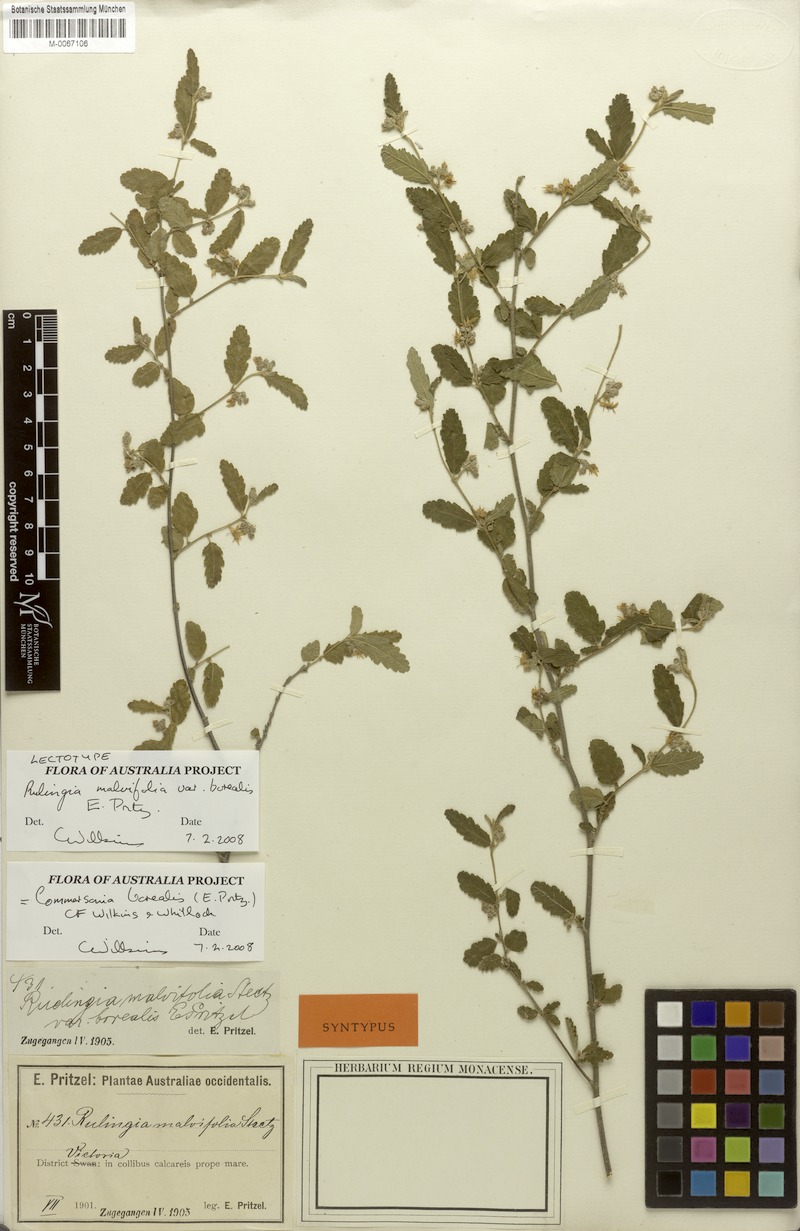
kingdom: Plantae
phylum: Tracheophyta
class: Magnoliopsida
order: Malvales
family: Malvaceae
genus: Commersonia
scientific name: Commersonia borealis
